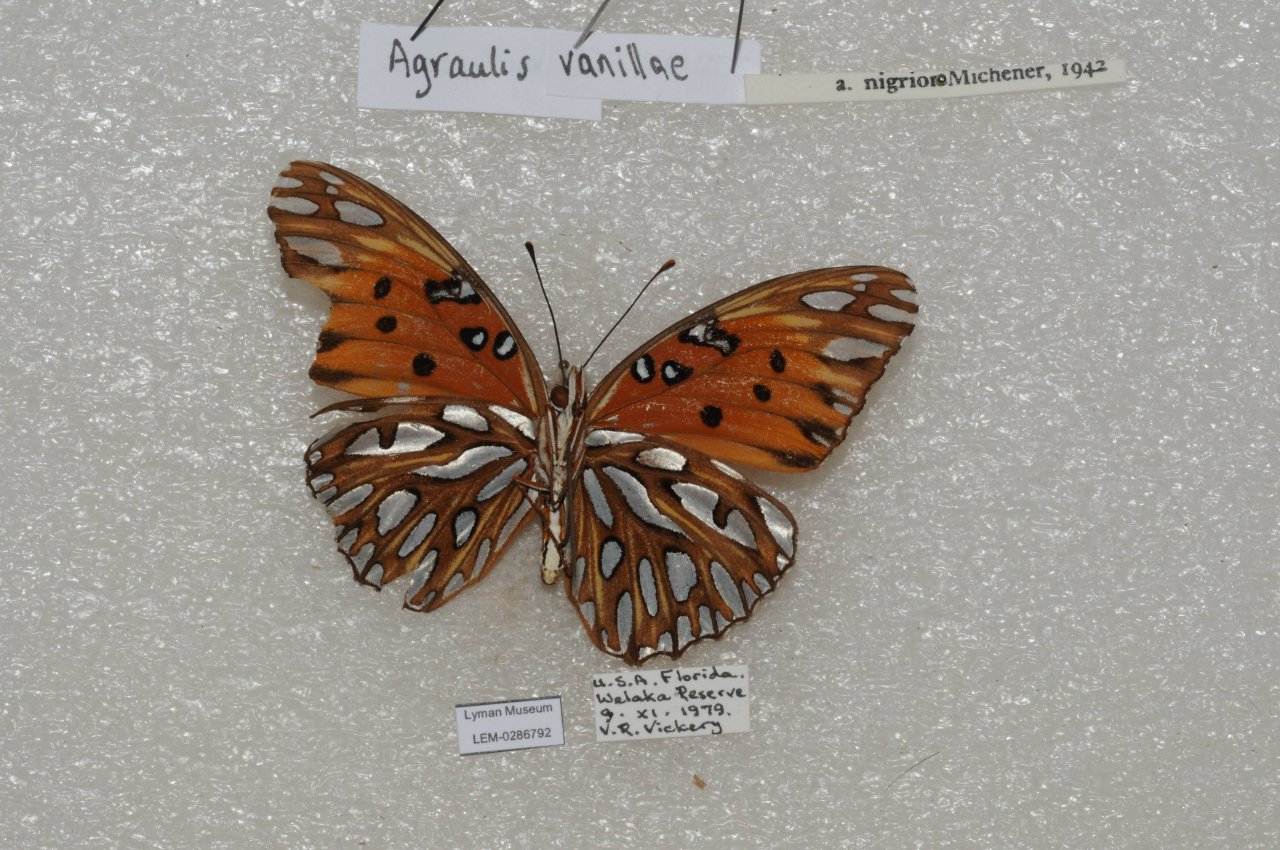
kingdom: Animalia
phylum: Arthropoda
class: Insecta
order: Lepidoptera
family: Nymphalidae
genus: Dione
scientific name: Dione vanillae
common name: Gulf Fritillary
